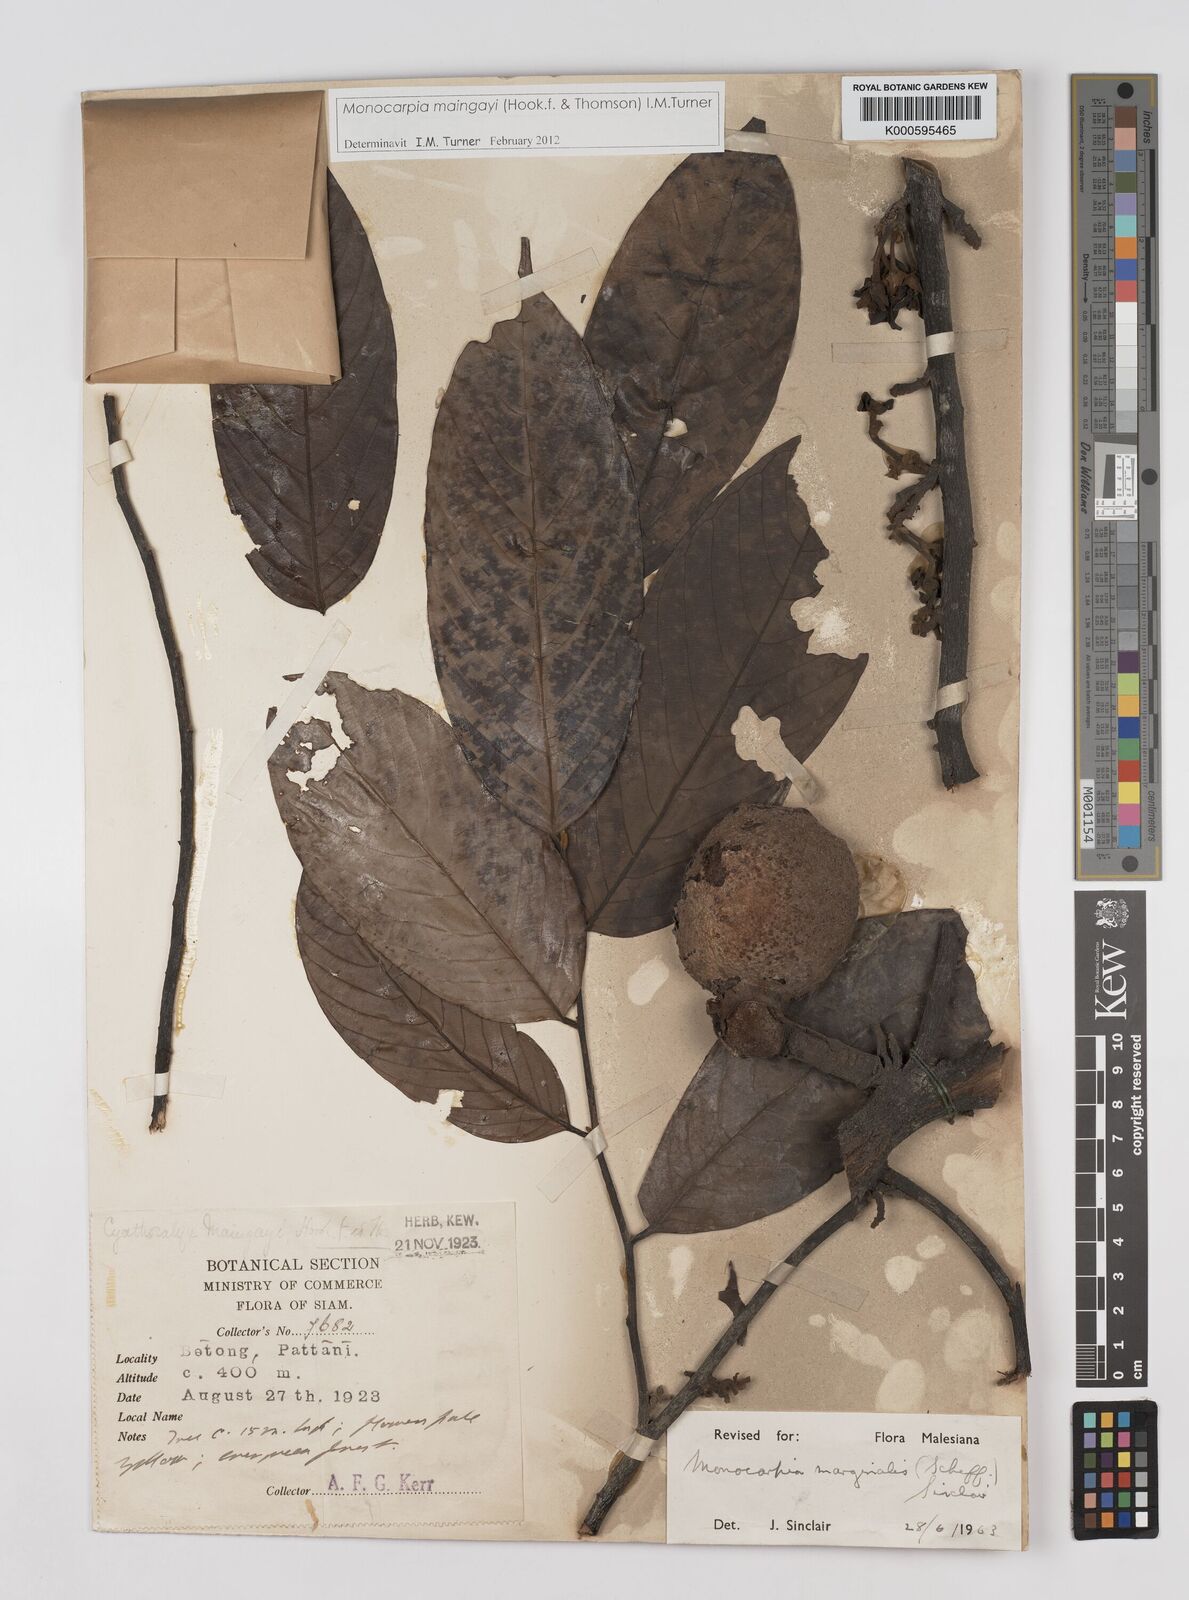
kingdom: Plantae
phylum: Tracheophyta
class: Magnoliopsida
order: Magnoliales
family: Annonaceae
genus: Monocarpia
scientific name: Monocarpia marginalis
